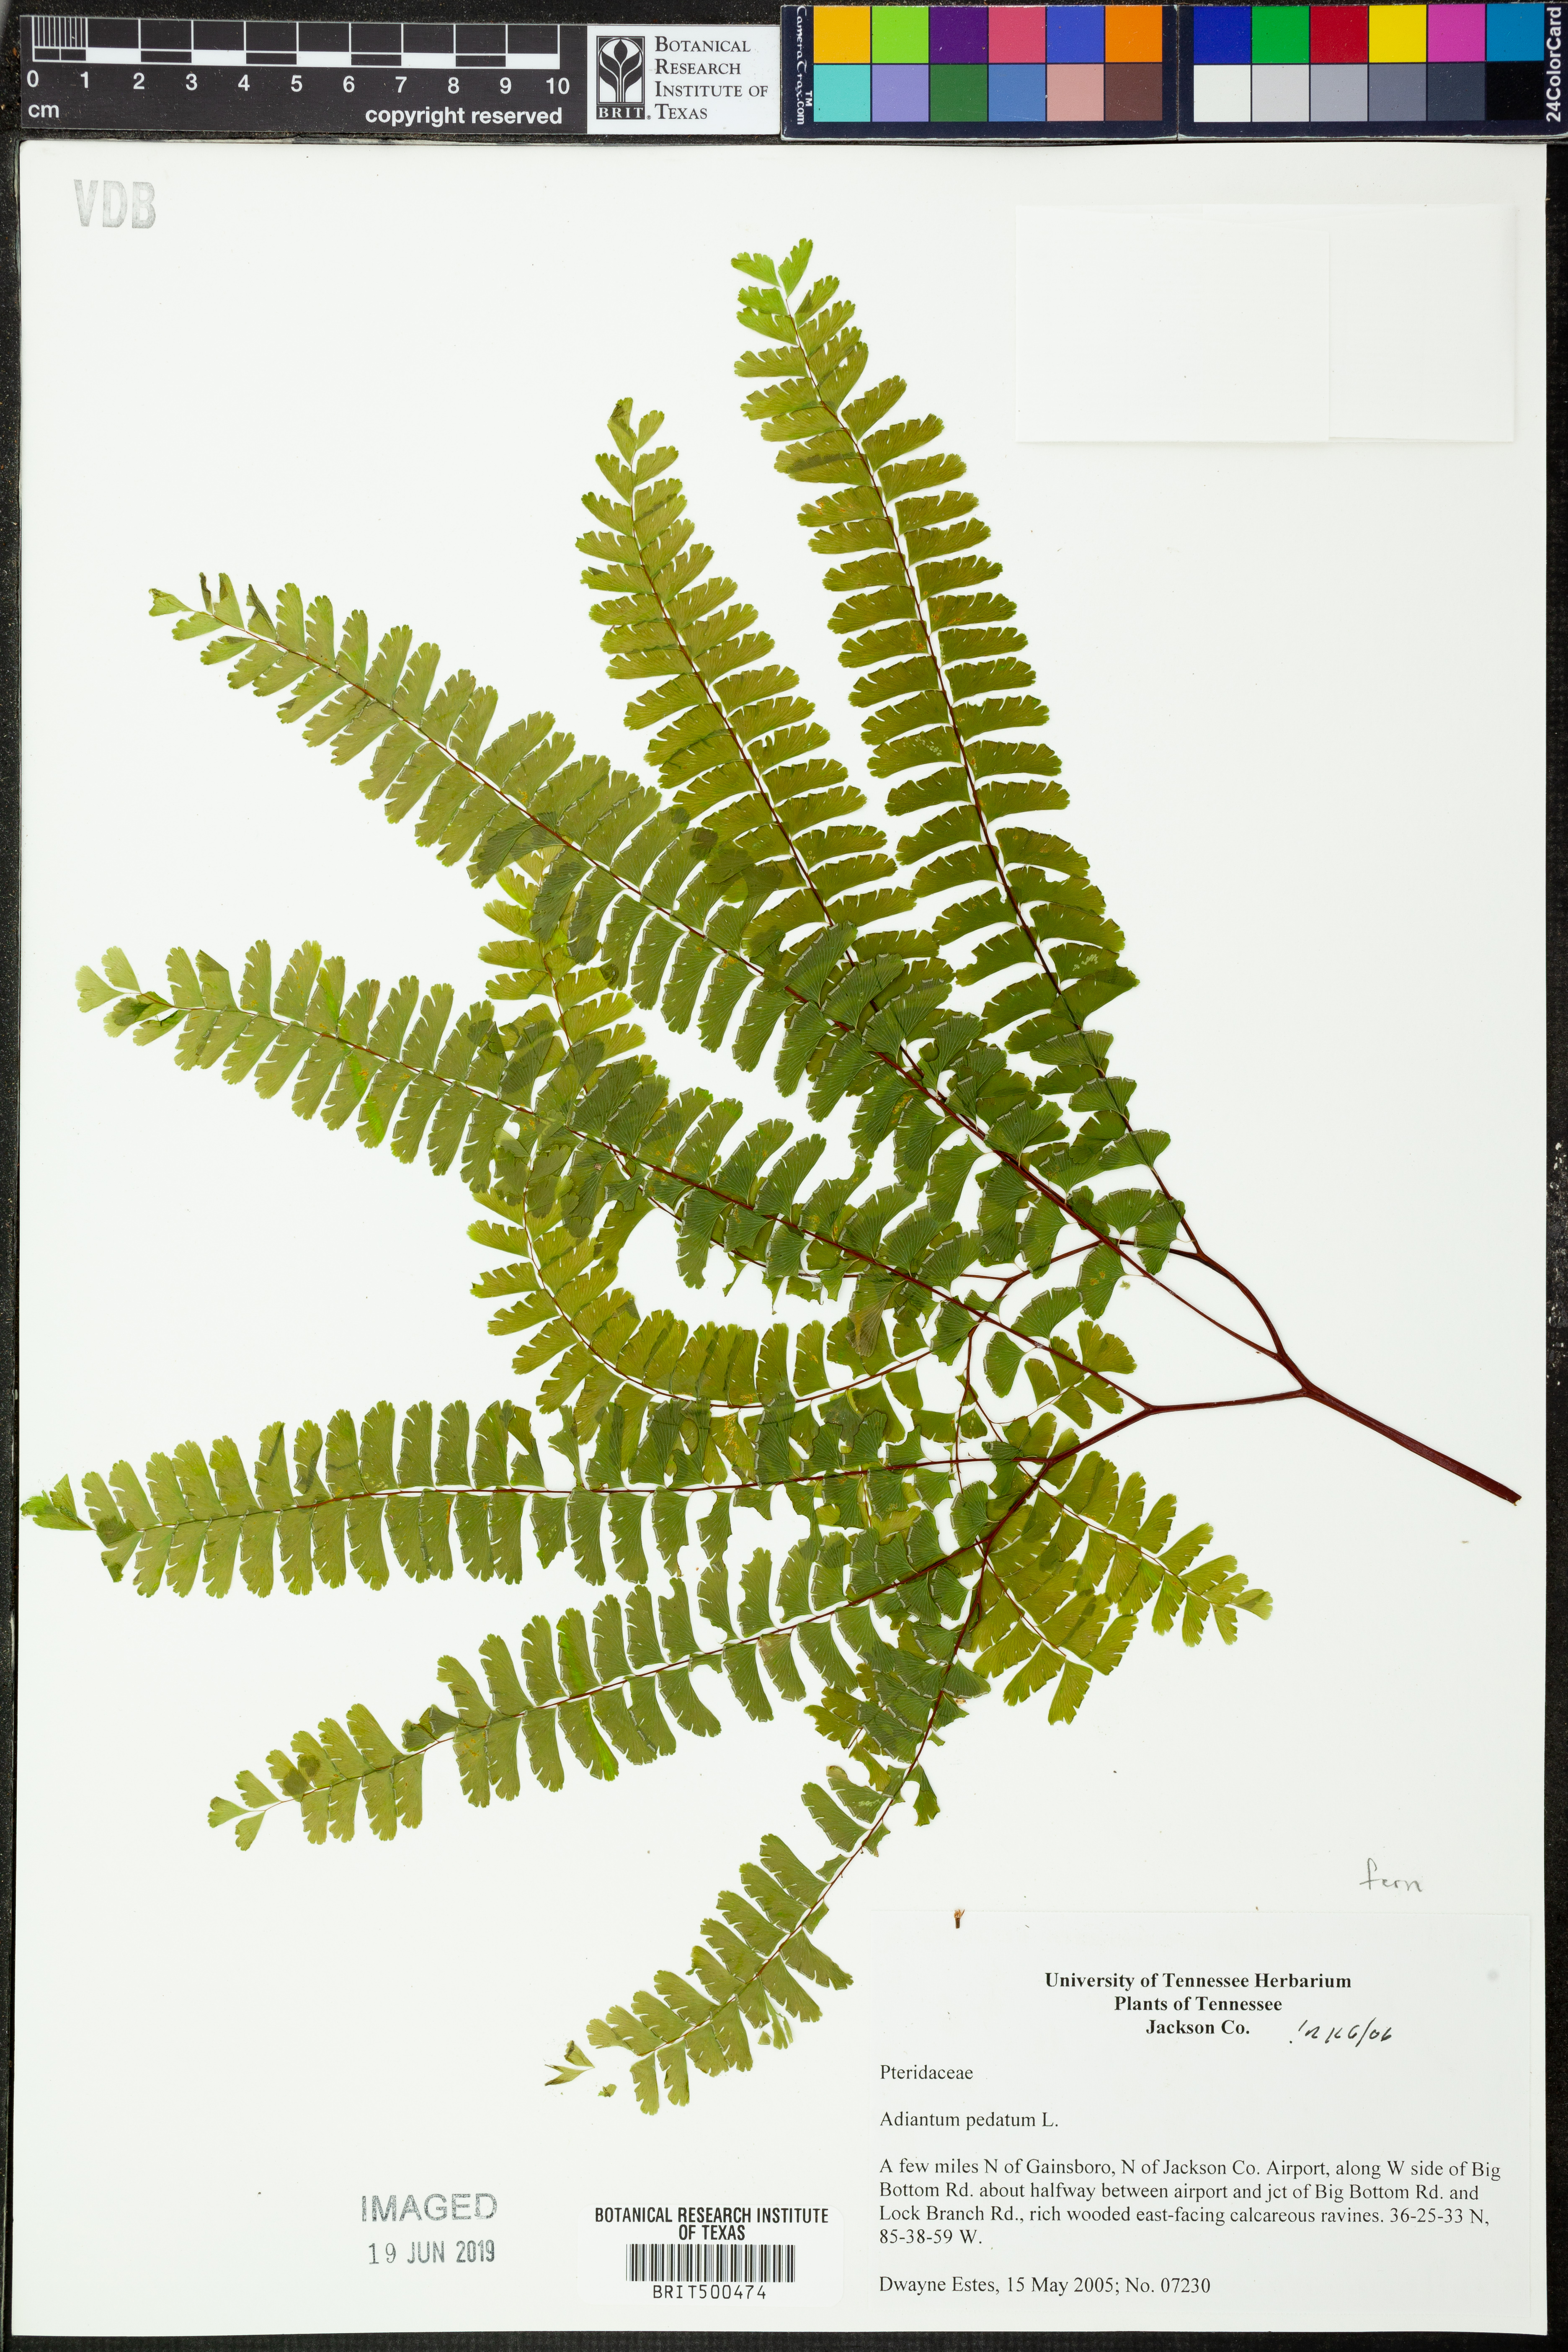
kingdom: Plantae
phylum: Tracheophyta
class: Polypodiopsida
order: Polypodiales
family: Pteridaceae
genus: Adiantum
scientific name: Adiantum pedatum
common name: Five-finger fern
